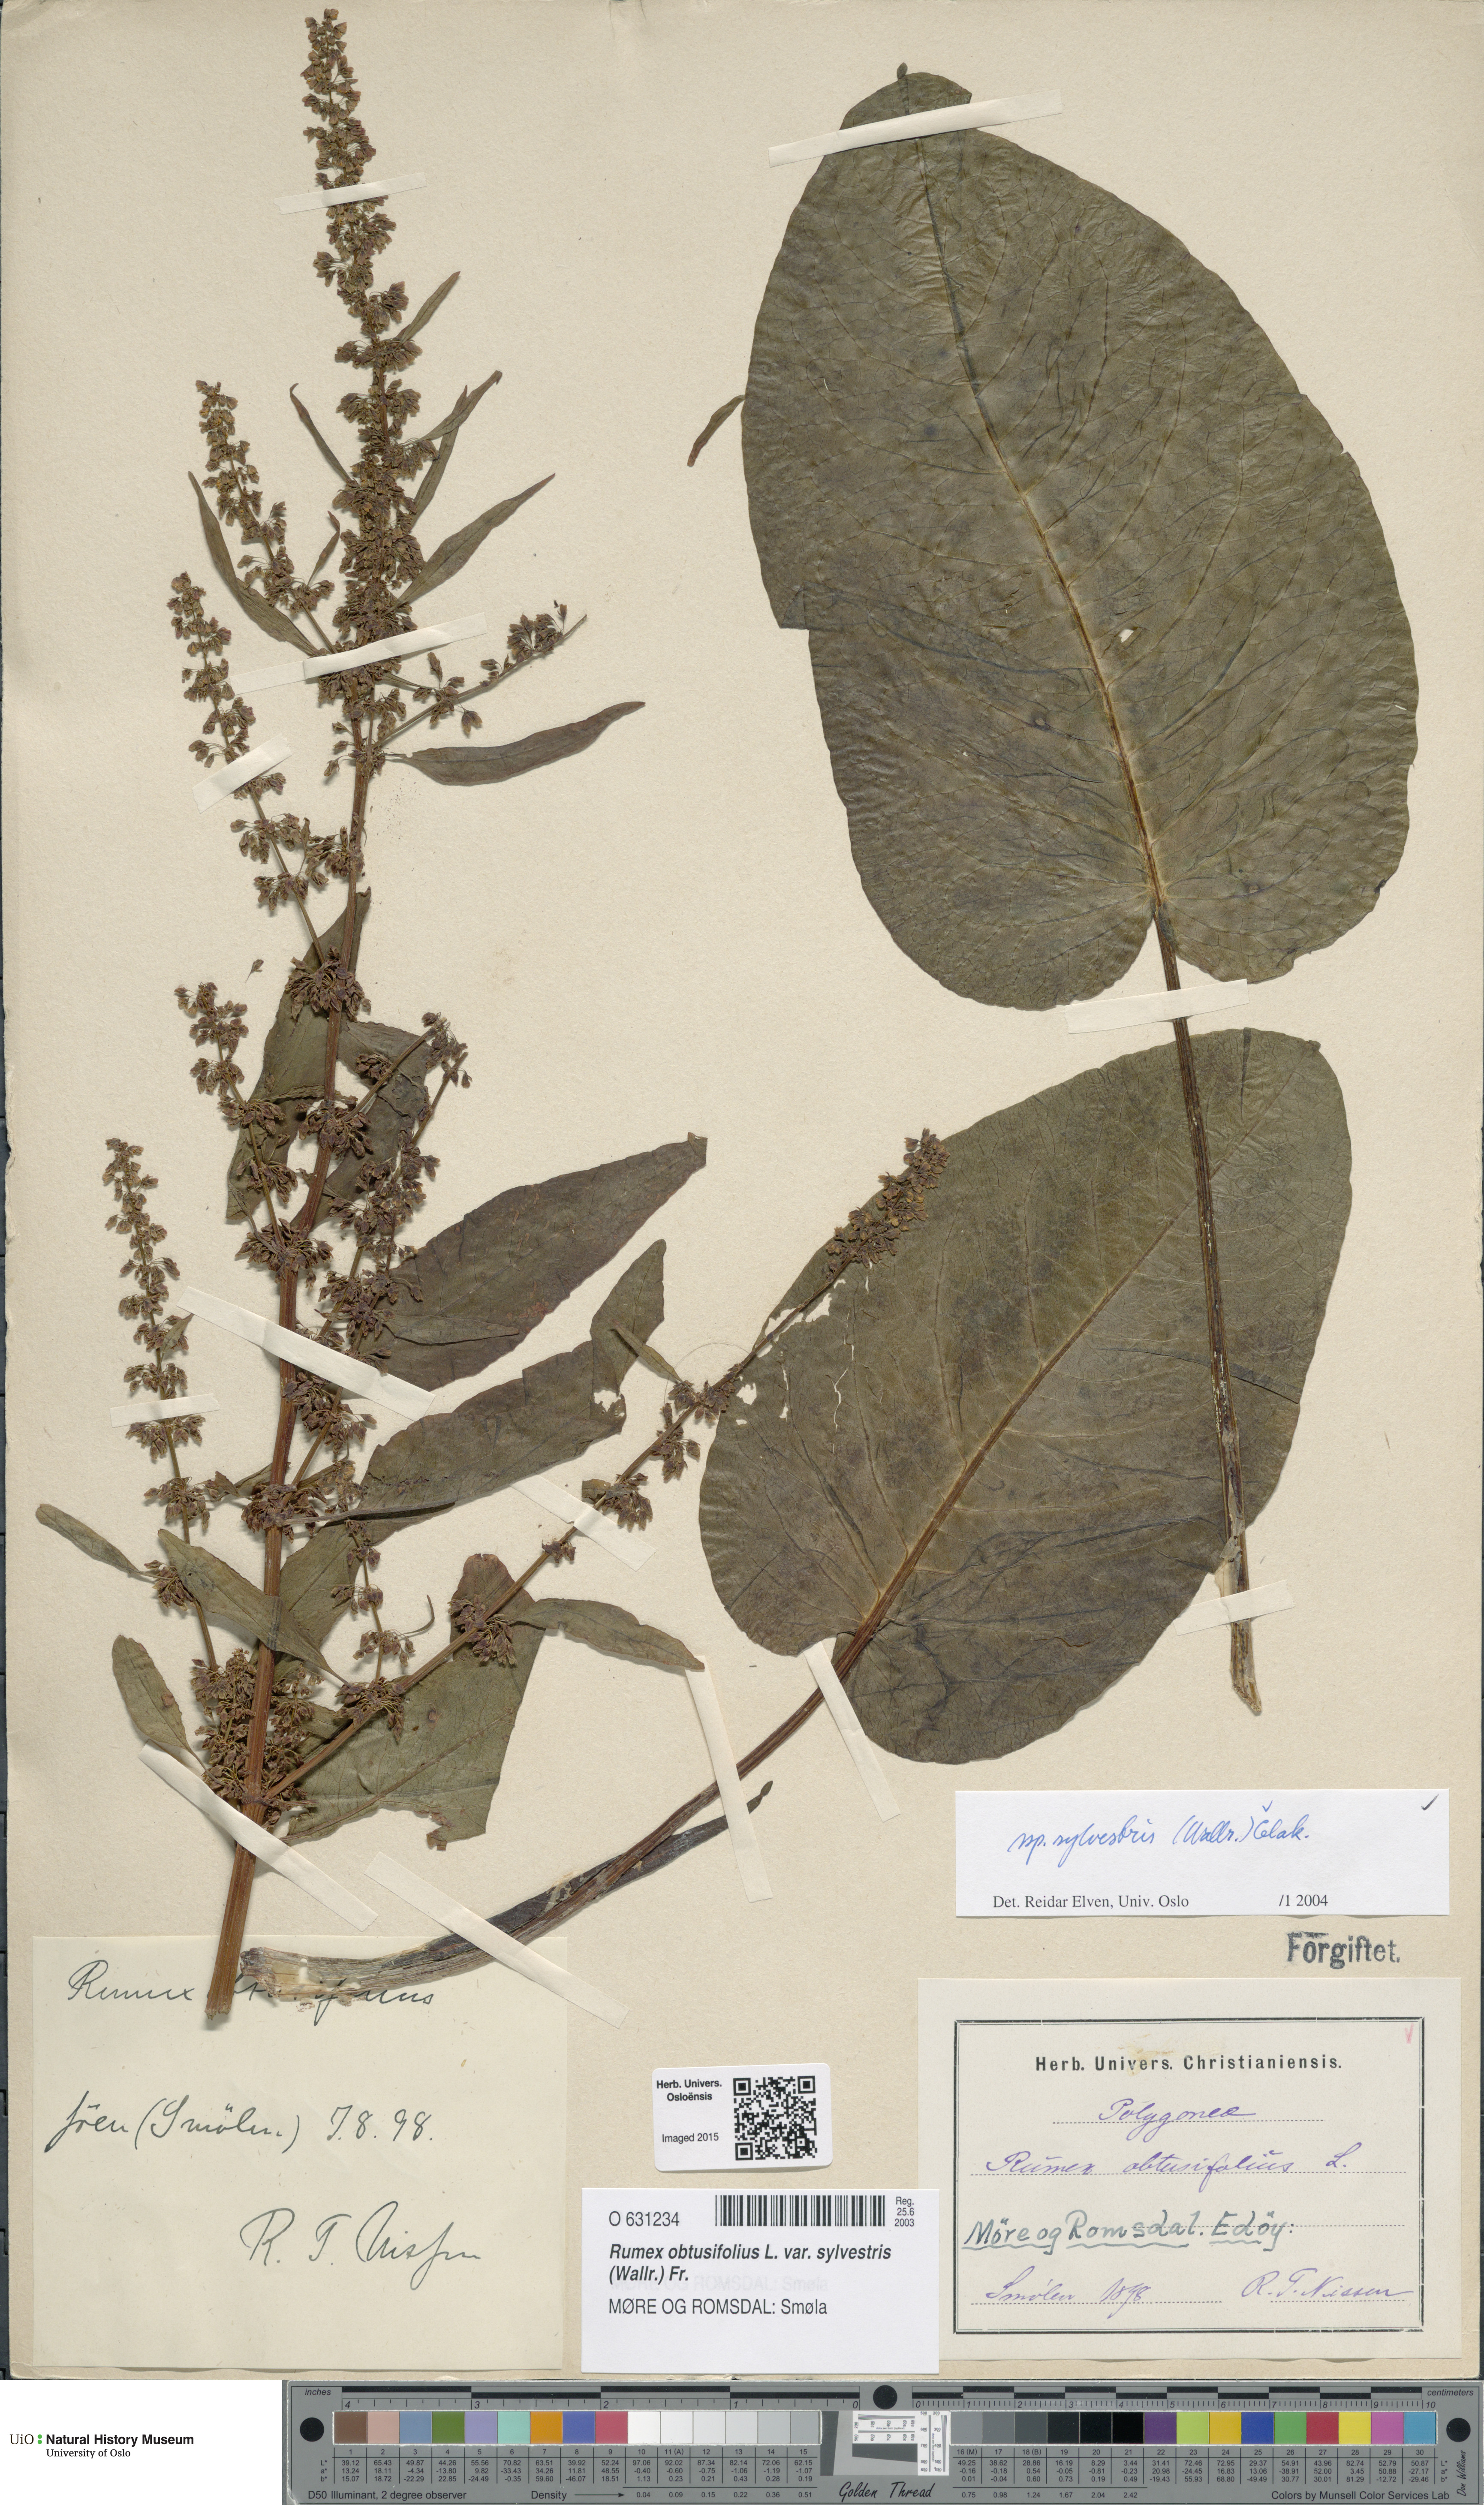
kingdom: Plantae
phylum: Tracheophyta
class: Magnoliopsida
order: Caryophyllales
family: Polygonaceae
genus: Rumex
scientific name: Rumex obtusifolius
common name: Bitter dock
